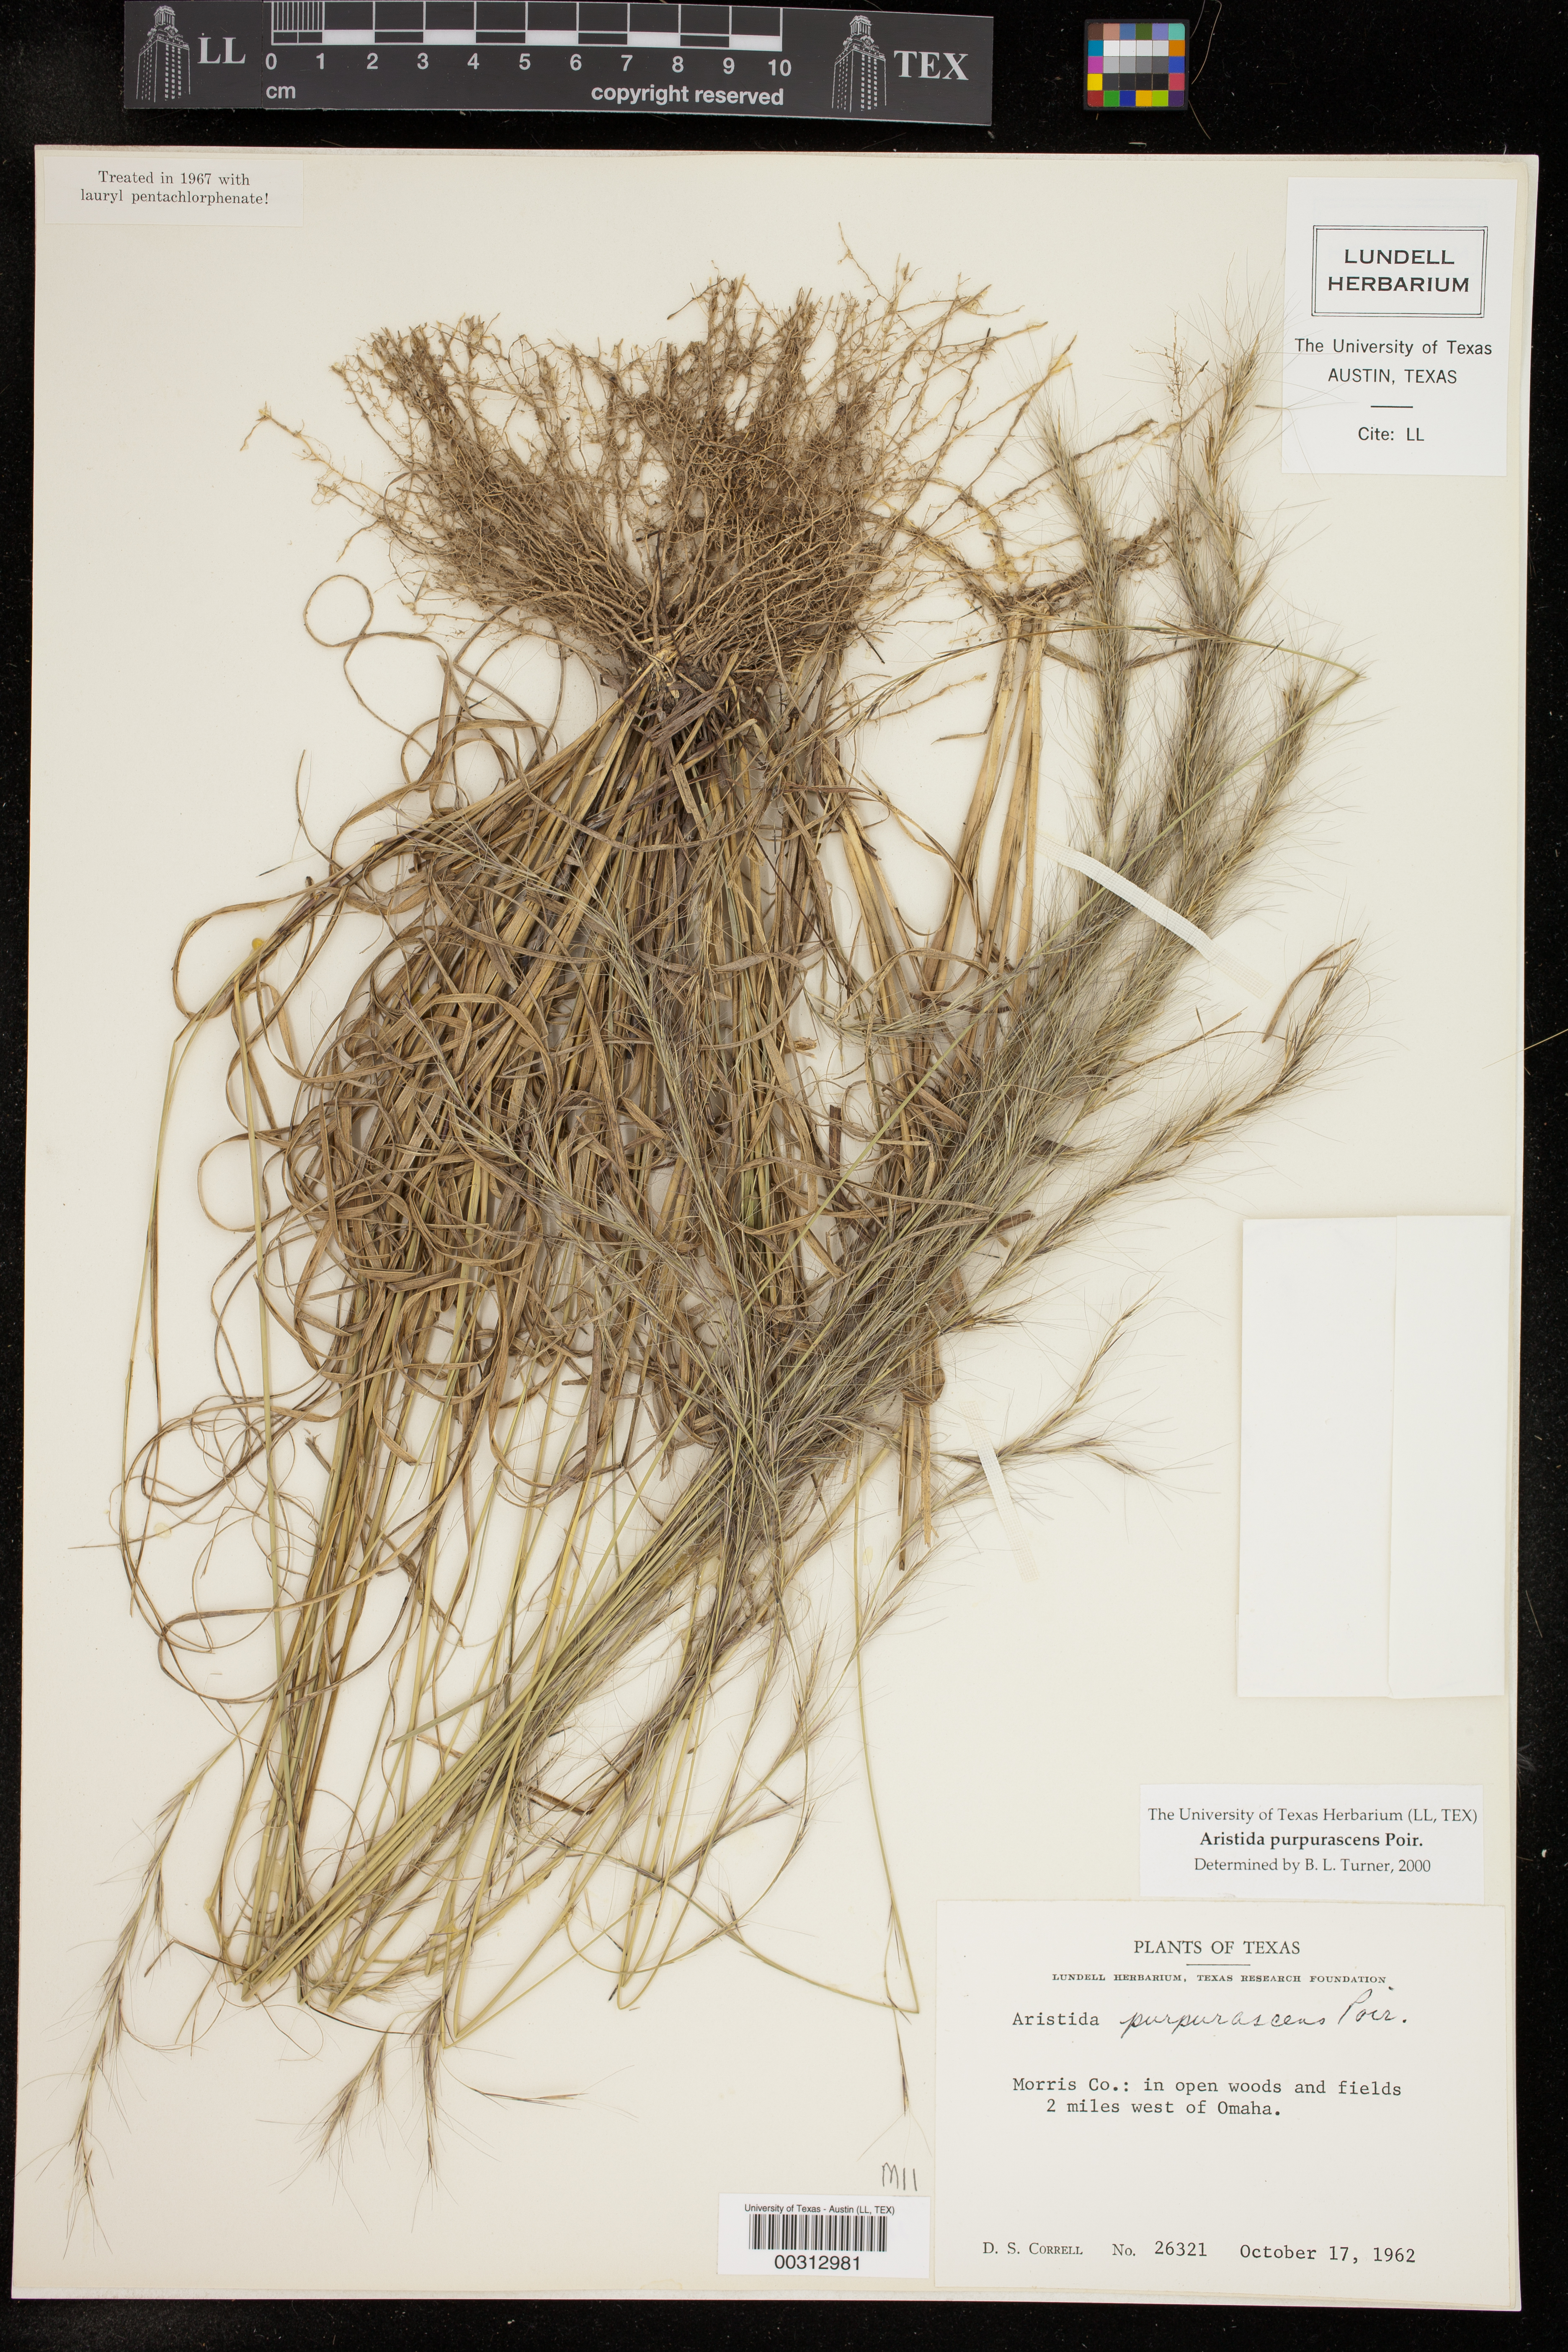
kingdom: Plantae
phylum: Tracheophyta
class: Liliopsida
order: Poales
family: Poaceae
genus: Aristida
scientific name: Aristida purpurascens
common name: Arrow-feather
